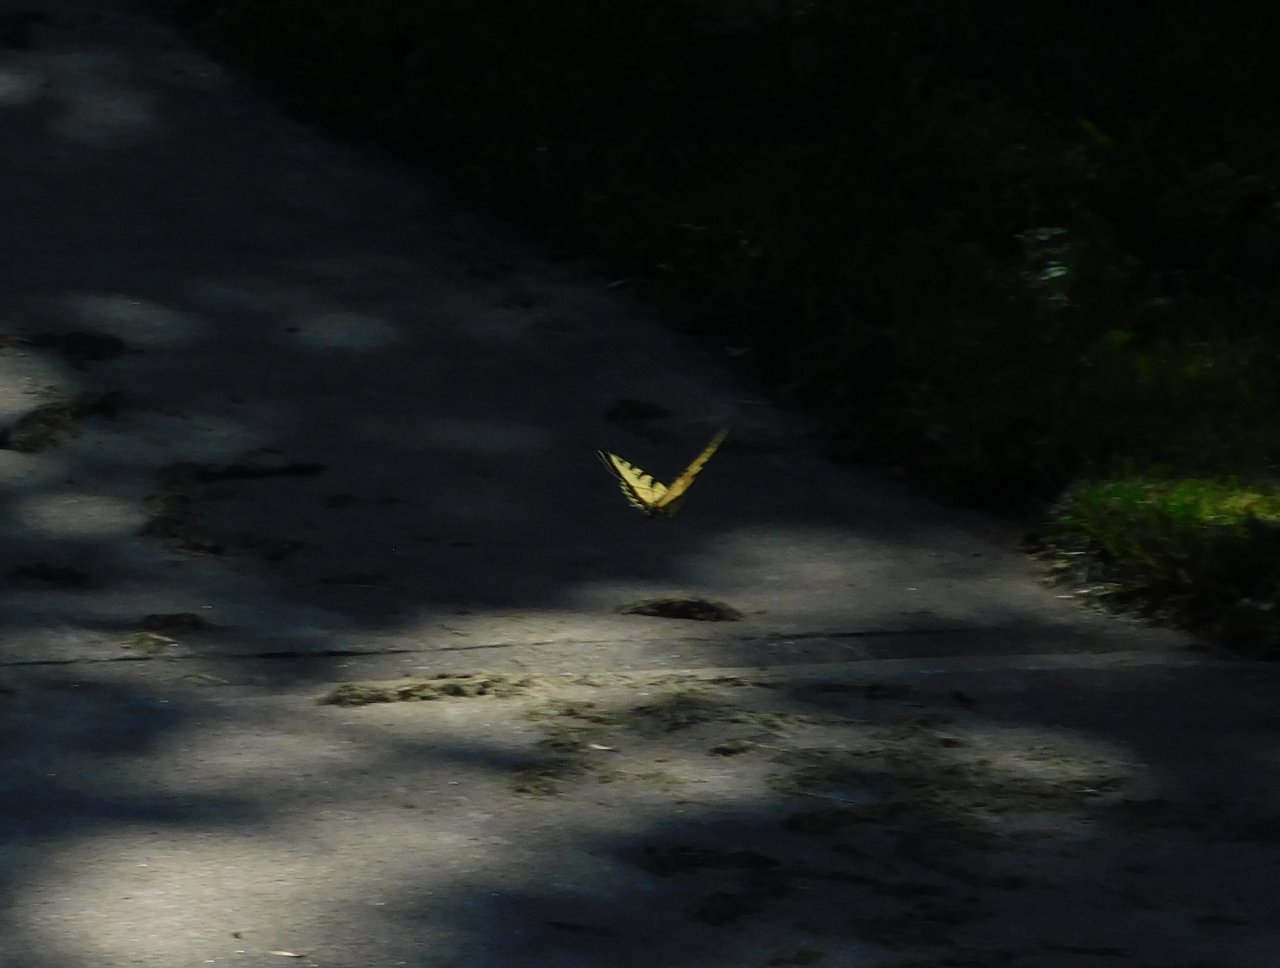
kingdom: Animalia
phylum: Arthropoda
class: Insecta
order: Lepidoptera
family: Papilionidae
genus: Pterourus
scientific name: Pterourus canadensis
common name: Canadian Tiger Swallowtail
